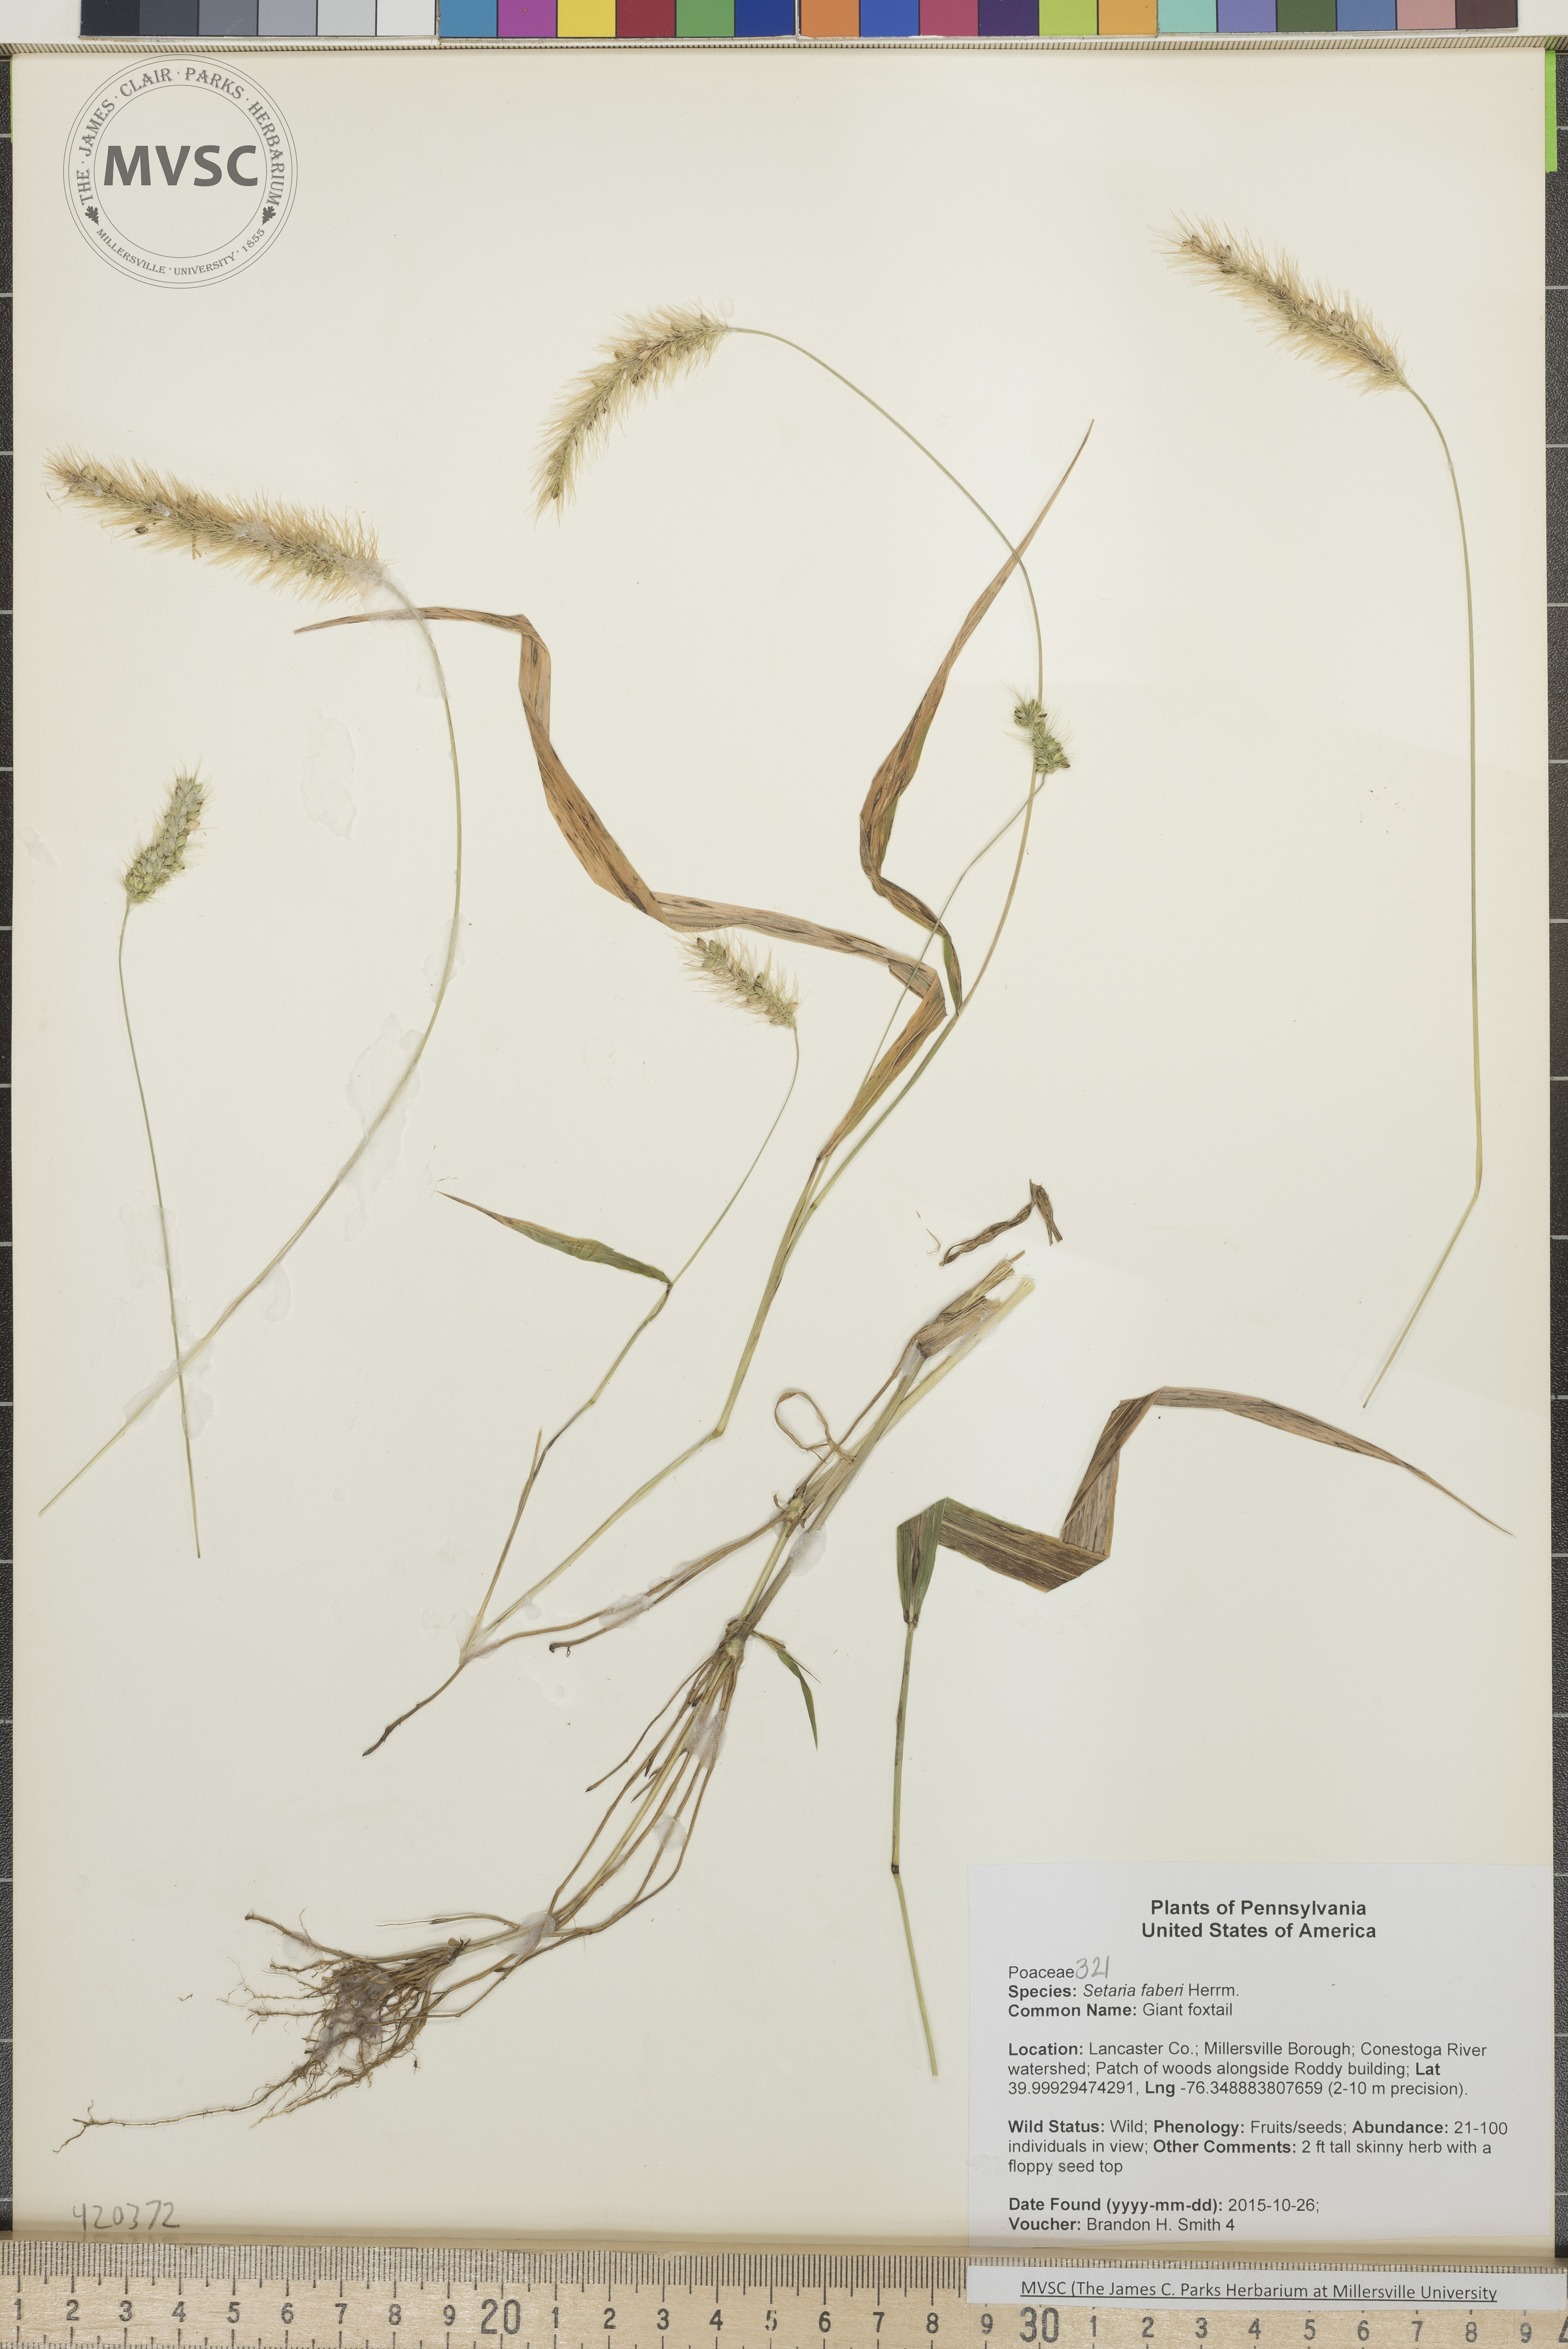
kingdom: Plantae
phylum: Tracheophyta
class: Liliopsida
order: Poales
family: Poaceae
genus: Setaria
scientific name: Setaria faberi
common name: Giant foxtail
